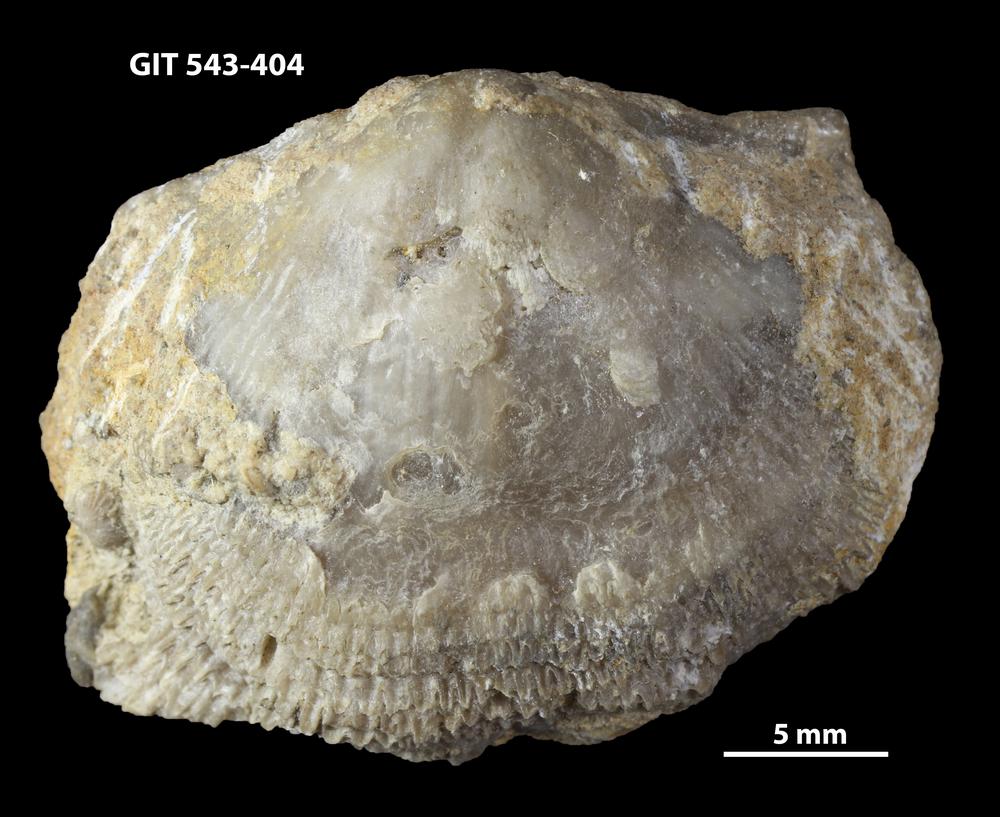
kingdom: Animalia
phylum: Brachiopoda
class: Rhynchonellata
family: Clitambonitidae
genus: Clitambonites
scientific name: Clitambonites squamatus
